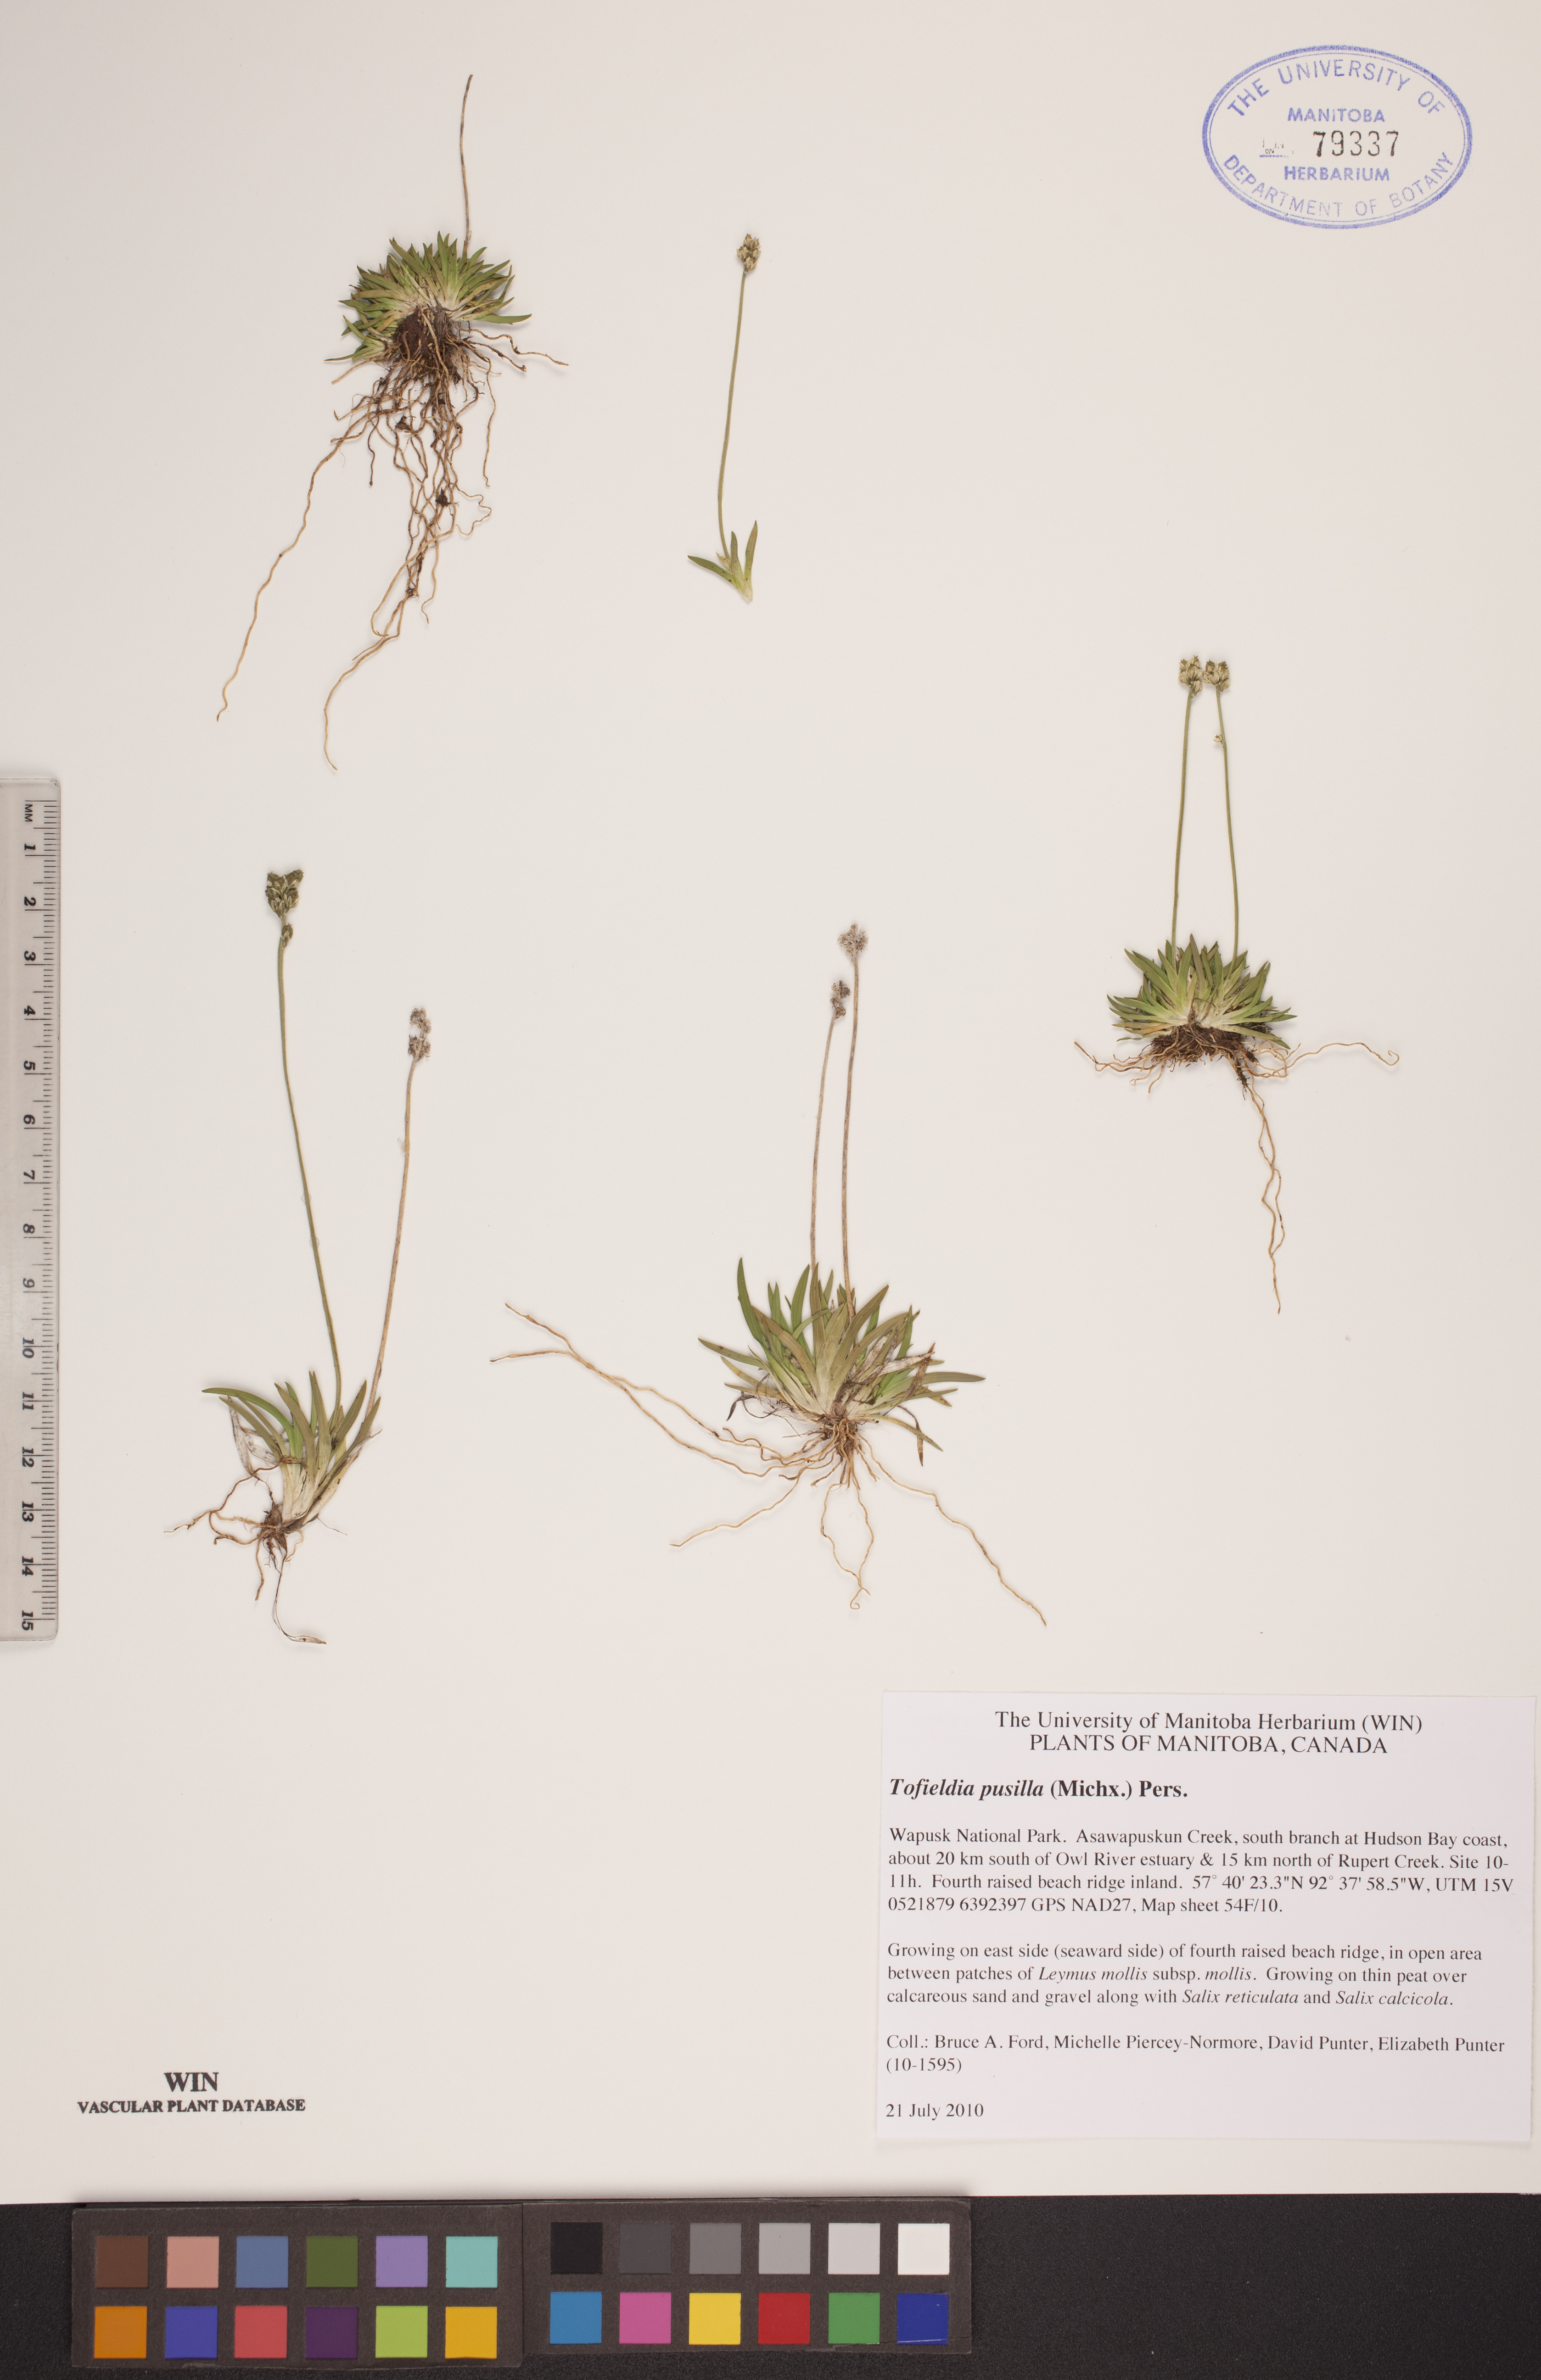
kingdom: Plantae
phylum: Tracheophyta
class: Liliopsida
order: Alismatales
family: Tofieldiaceae
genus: Tofieldia
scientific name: Tofieldia pusilla
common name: Scottish false asphodel
